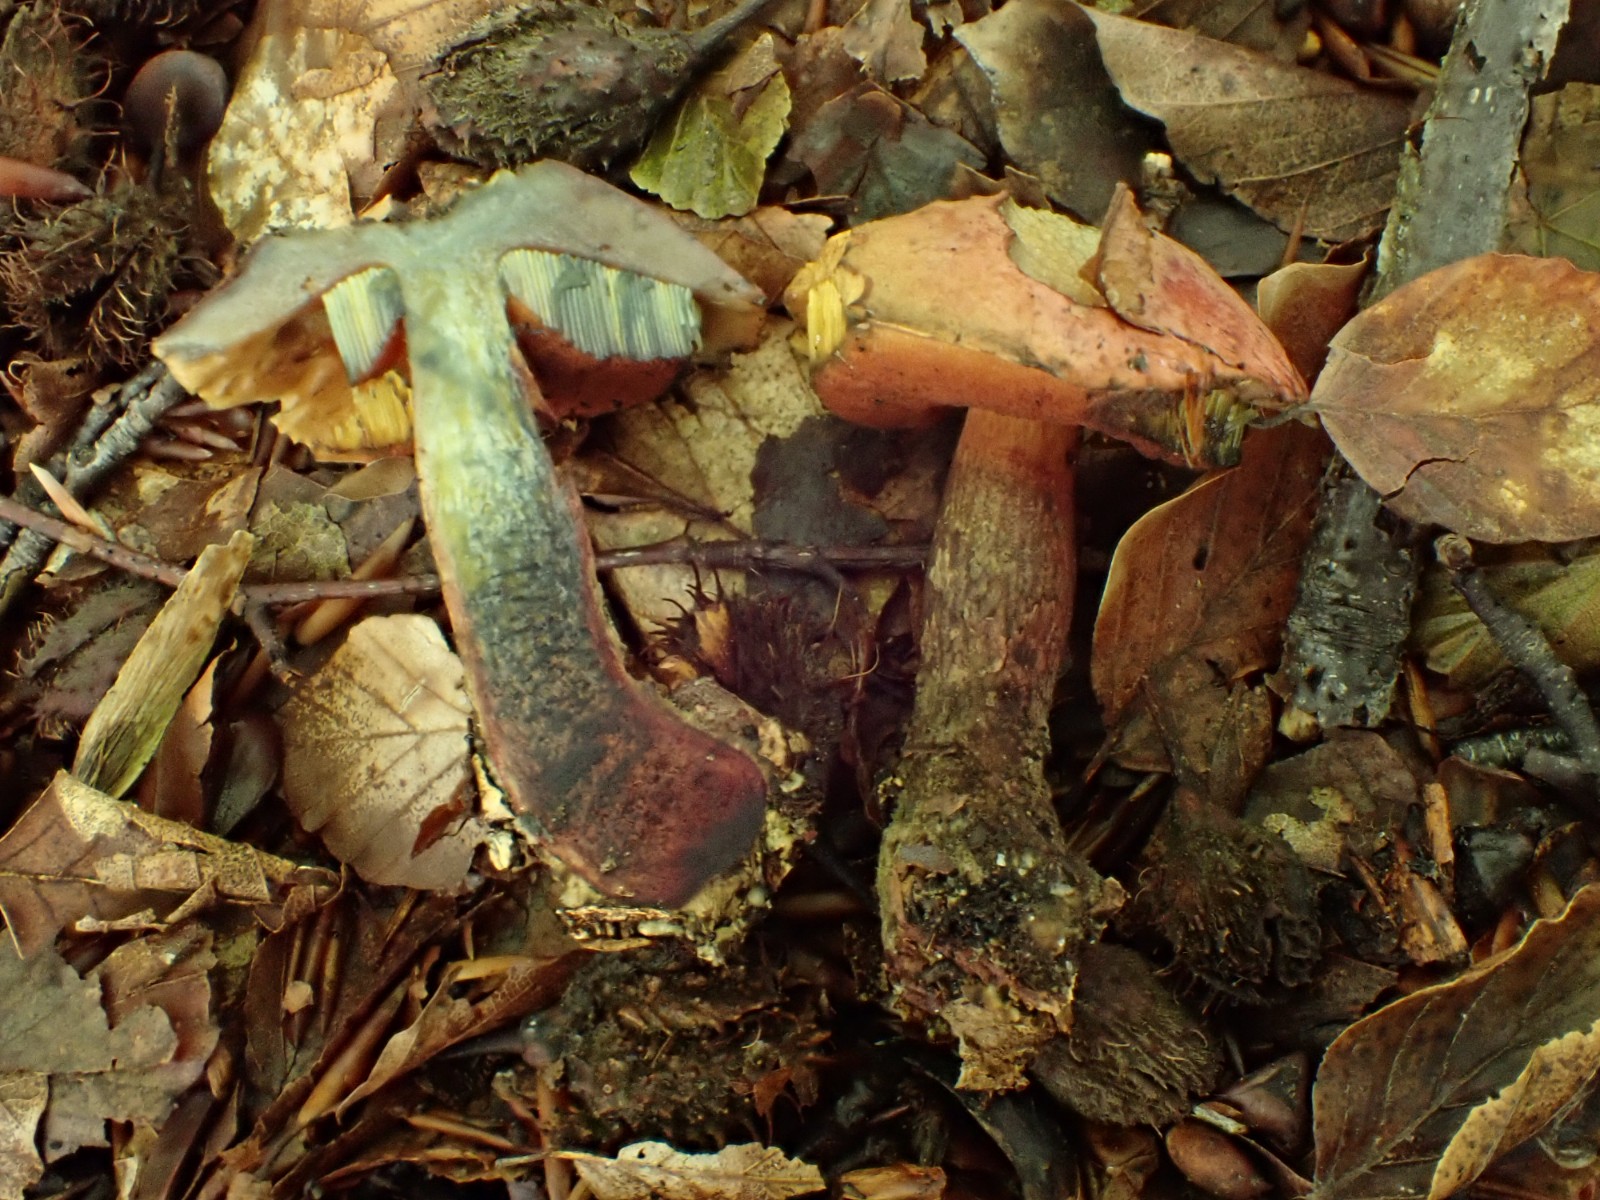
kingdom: Fungi
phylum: Basidiomycota
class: Agaricomycetes
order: Boletales
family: Boletaceae
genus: Suillellus
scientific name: Suillellus queletii
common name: glatstokket indigorørhat
